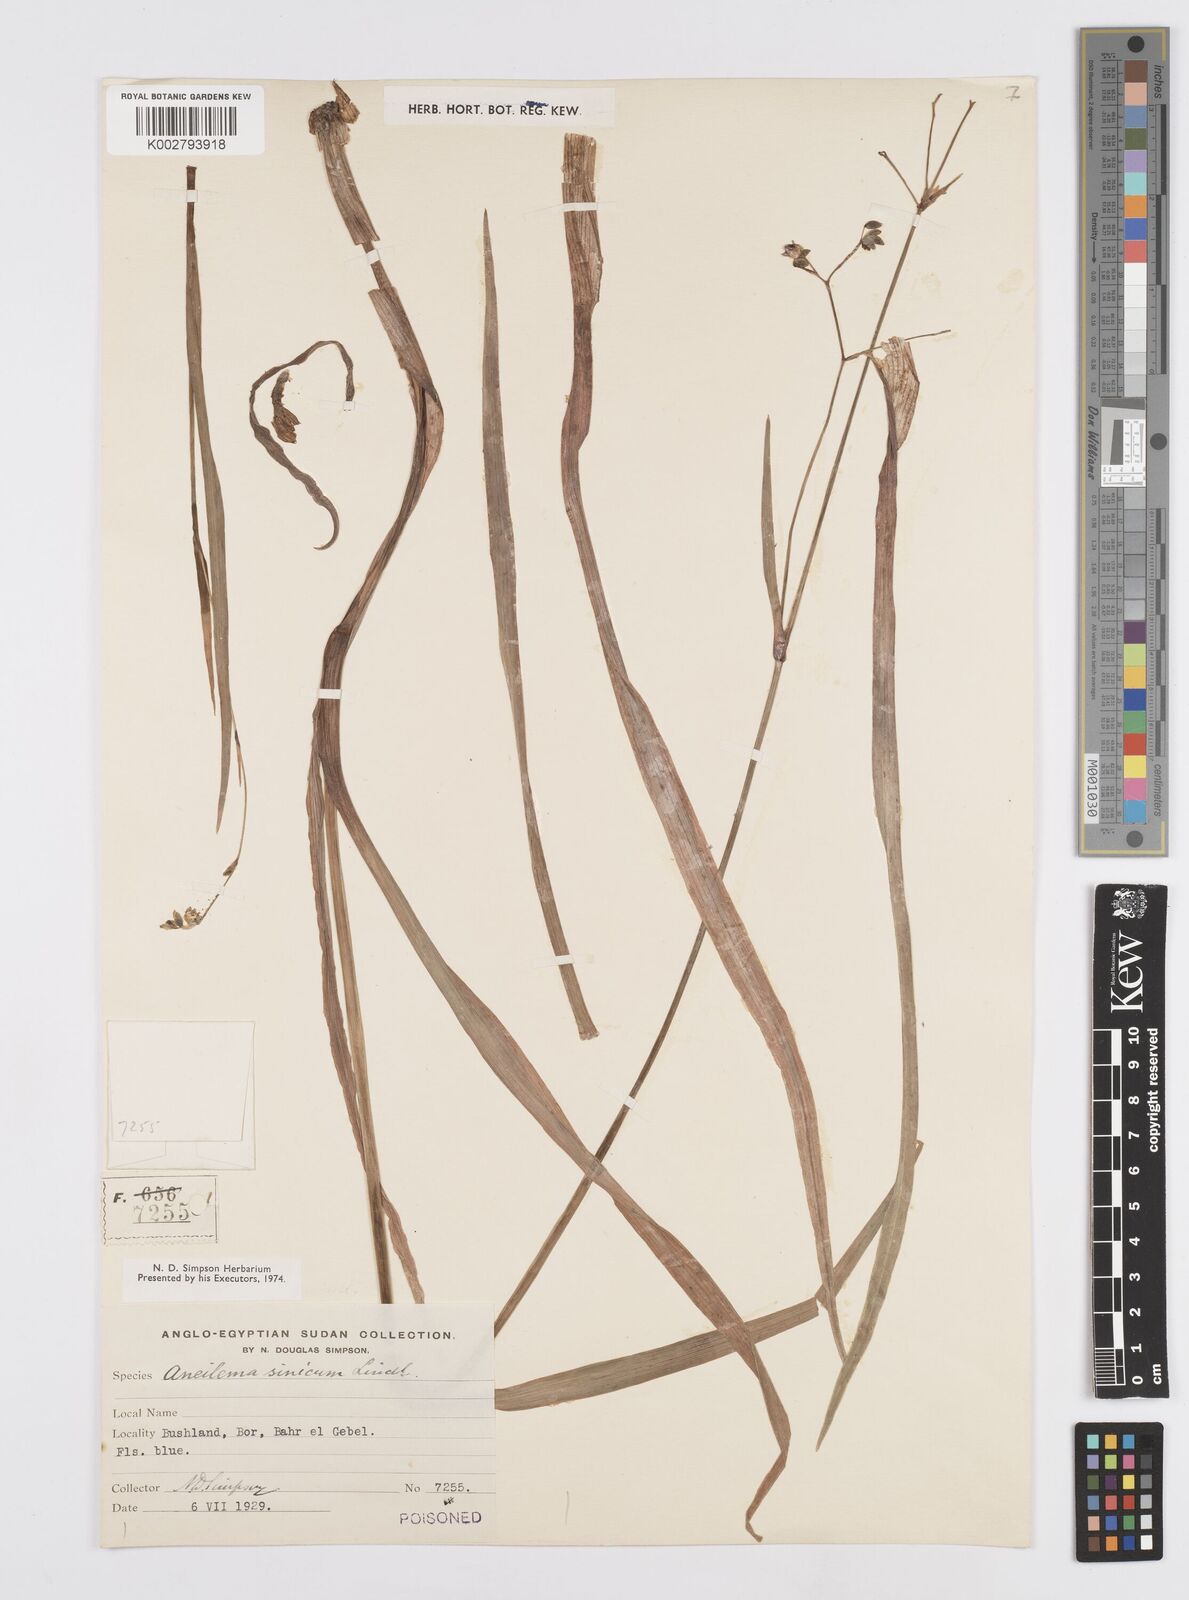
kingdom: Plantae
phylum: Tracheophyta
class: Liliopsida
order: Commelinales
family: Commelinaceae
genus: Murdannia
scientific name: Murdannia simplex
